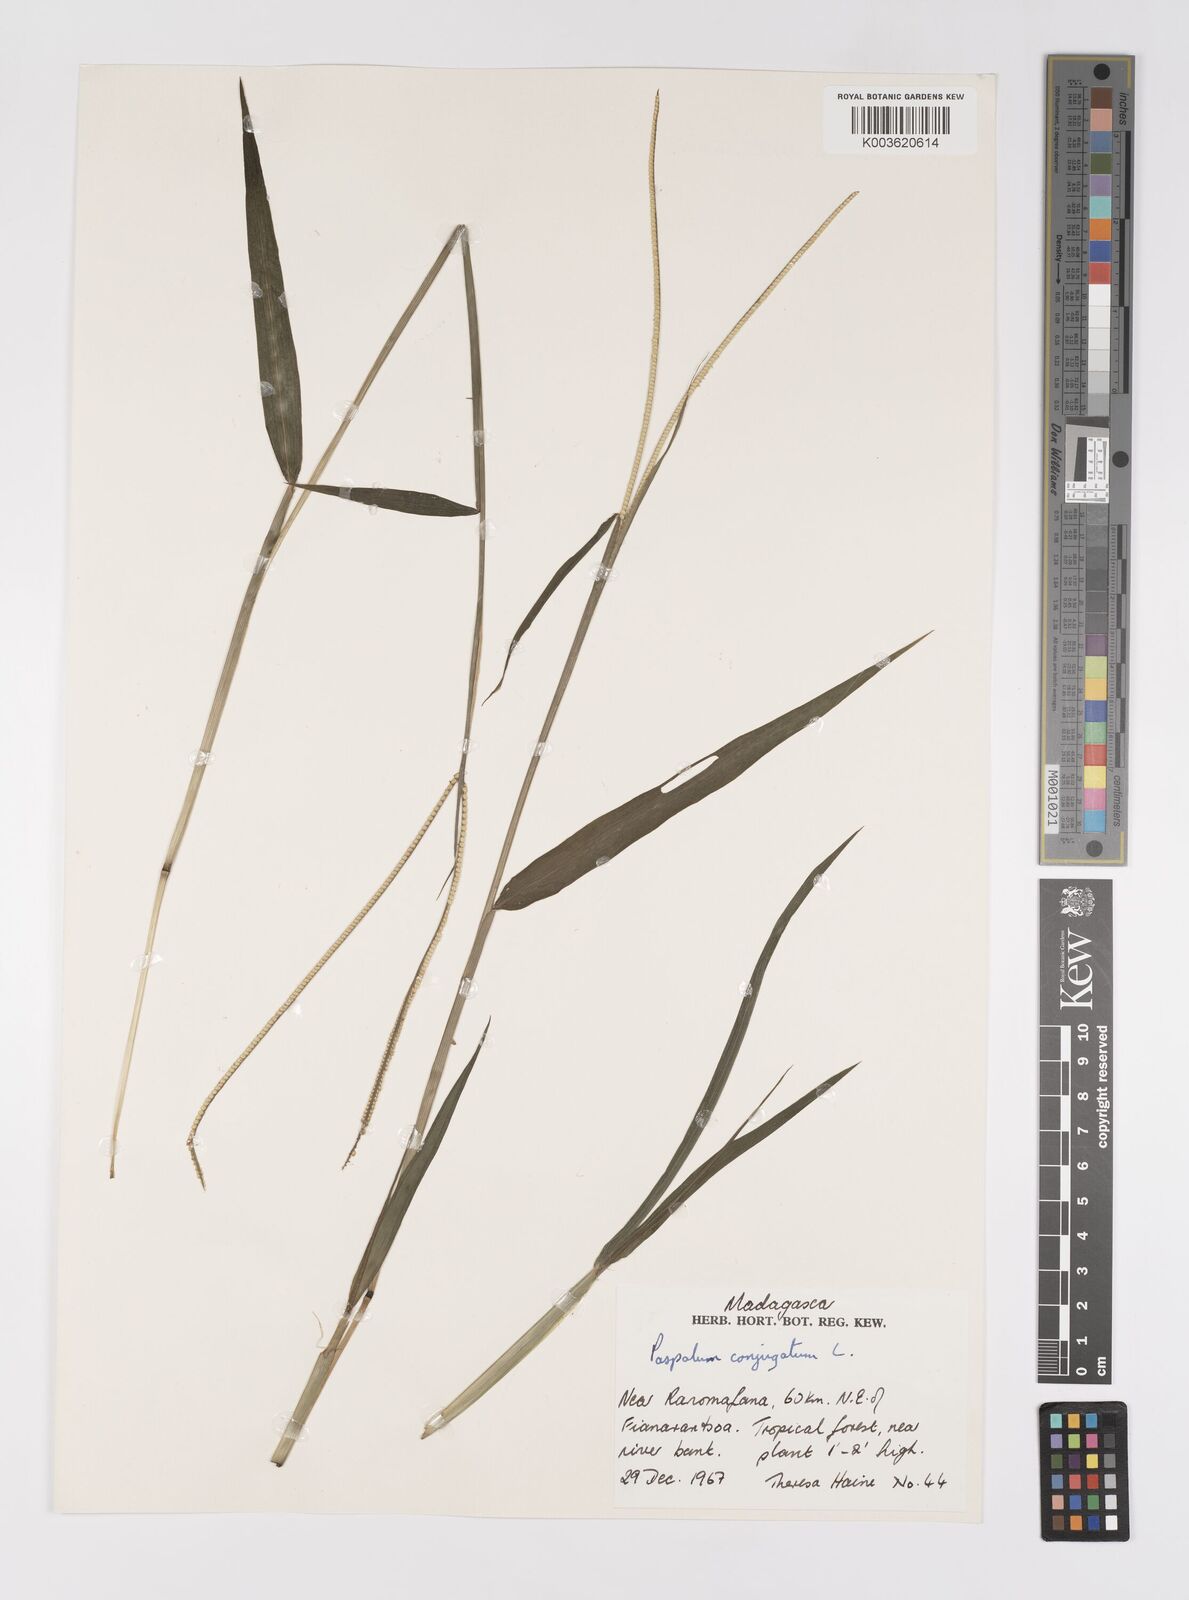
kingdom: Plantae
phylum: Tracheophyta
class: Liliopsida
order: Poales
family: Poaceae
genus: Paspalum
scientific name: Paspalum conjugatum
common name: Hilograss
